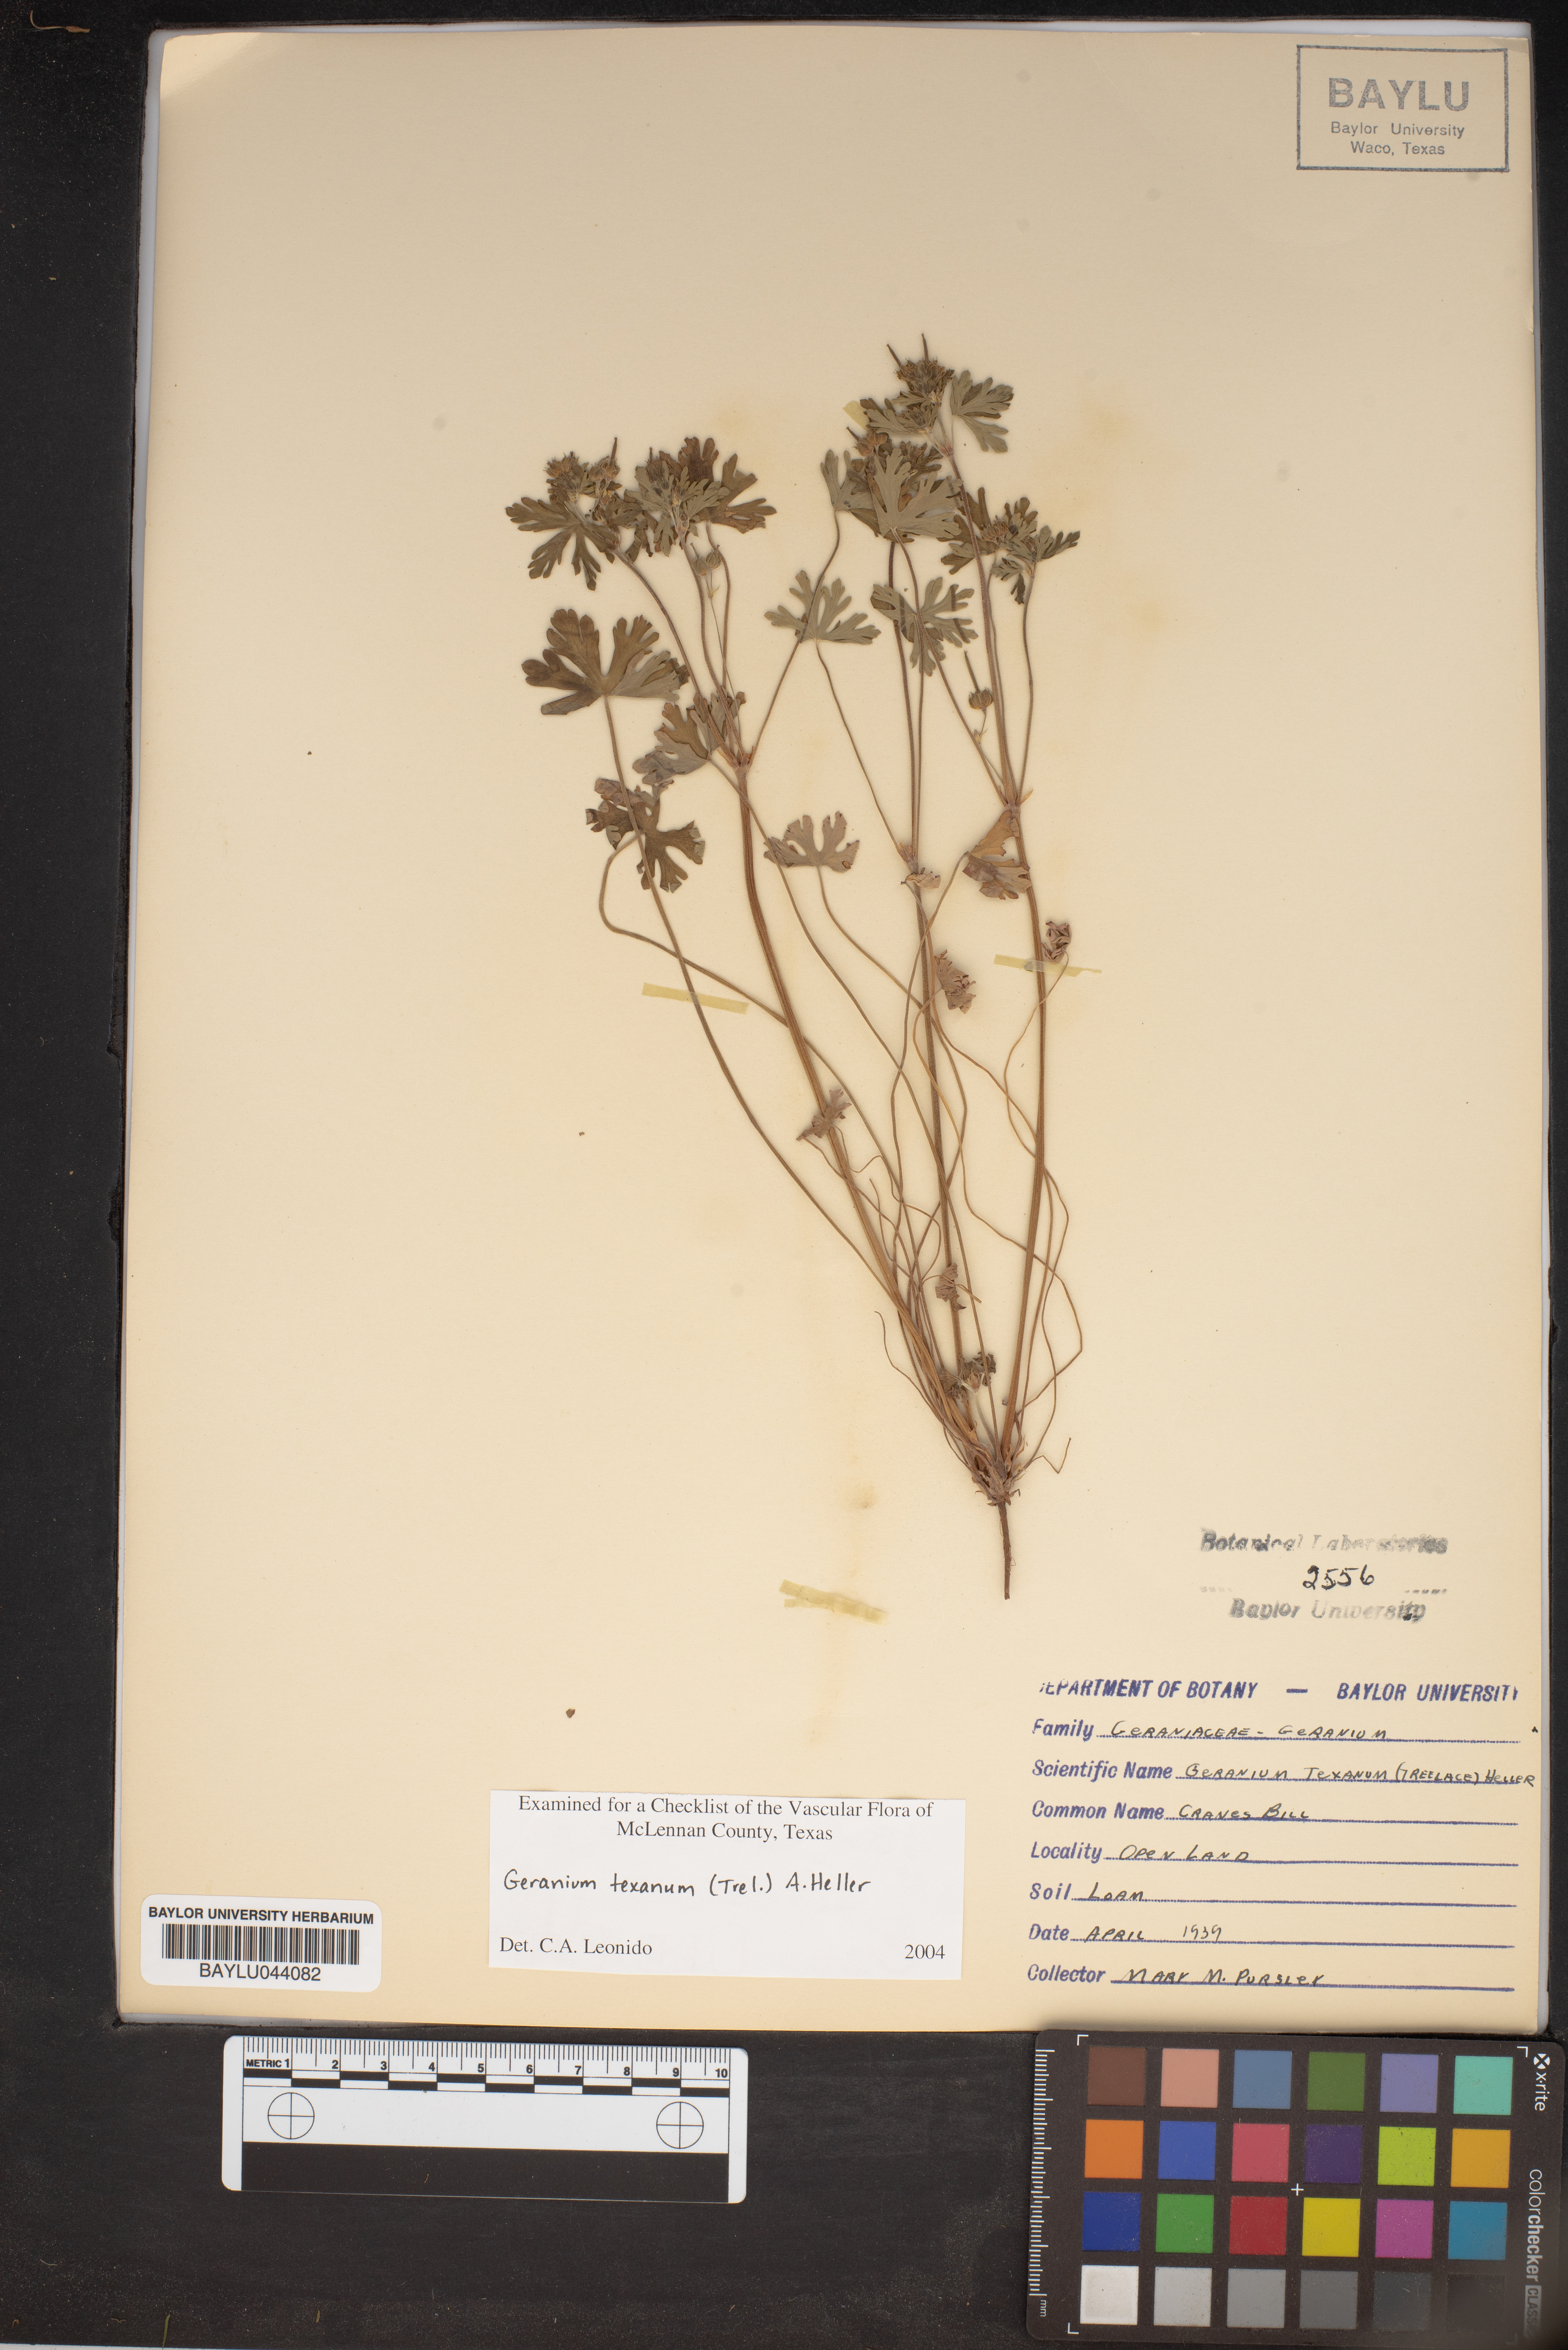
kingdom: Plantae
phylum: Tracheophyta
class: Magnoliopsida
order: Geraniales
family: Geraniaceae
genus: Geranium
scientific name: Geranium texanum
